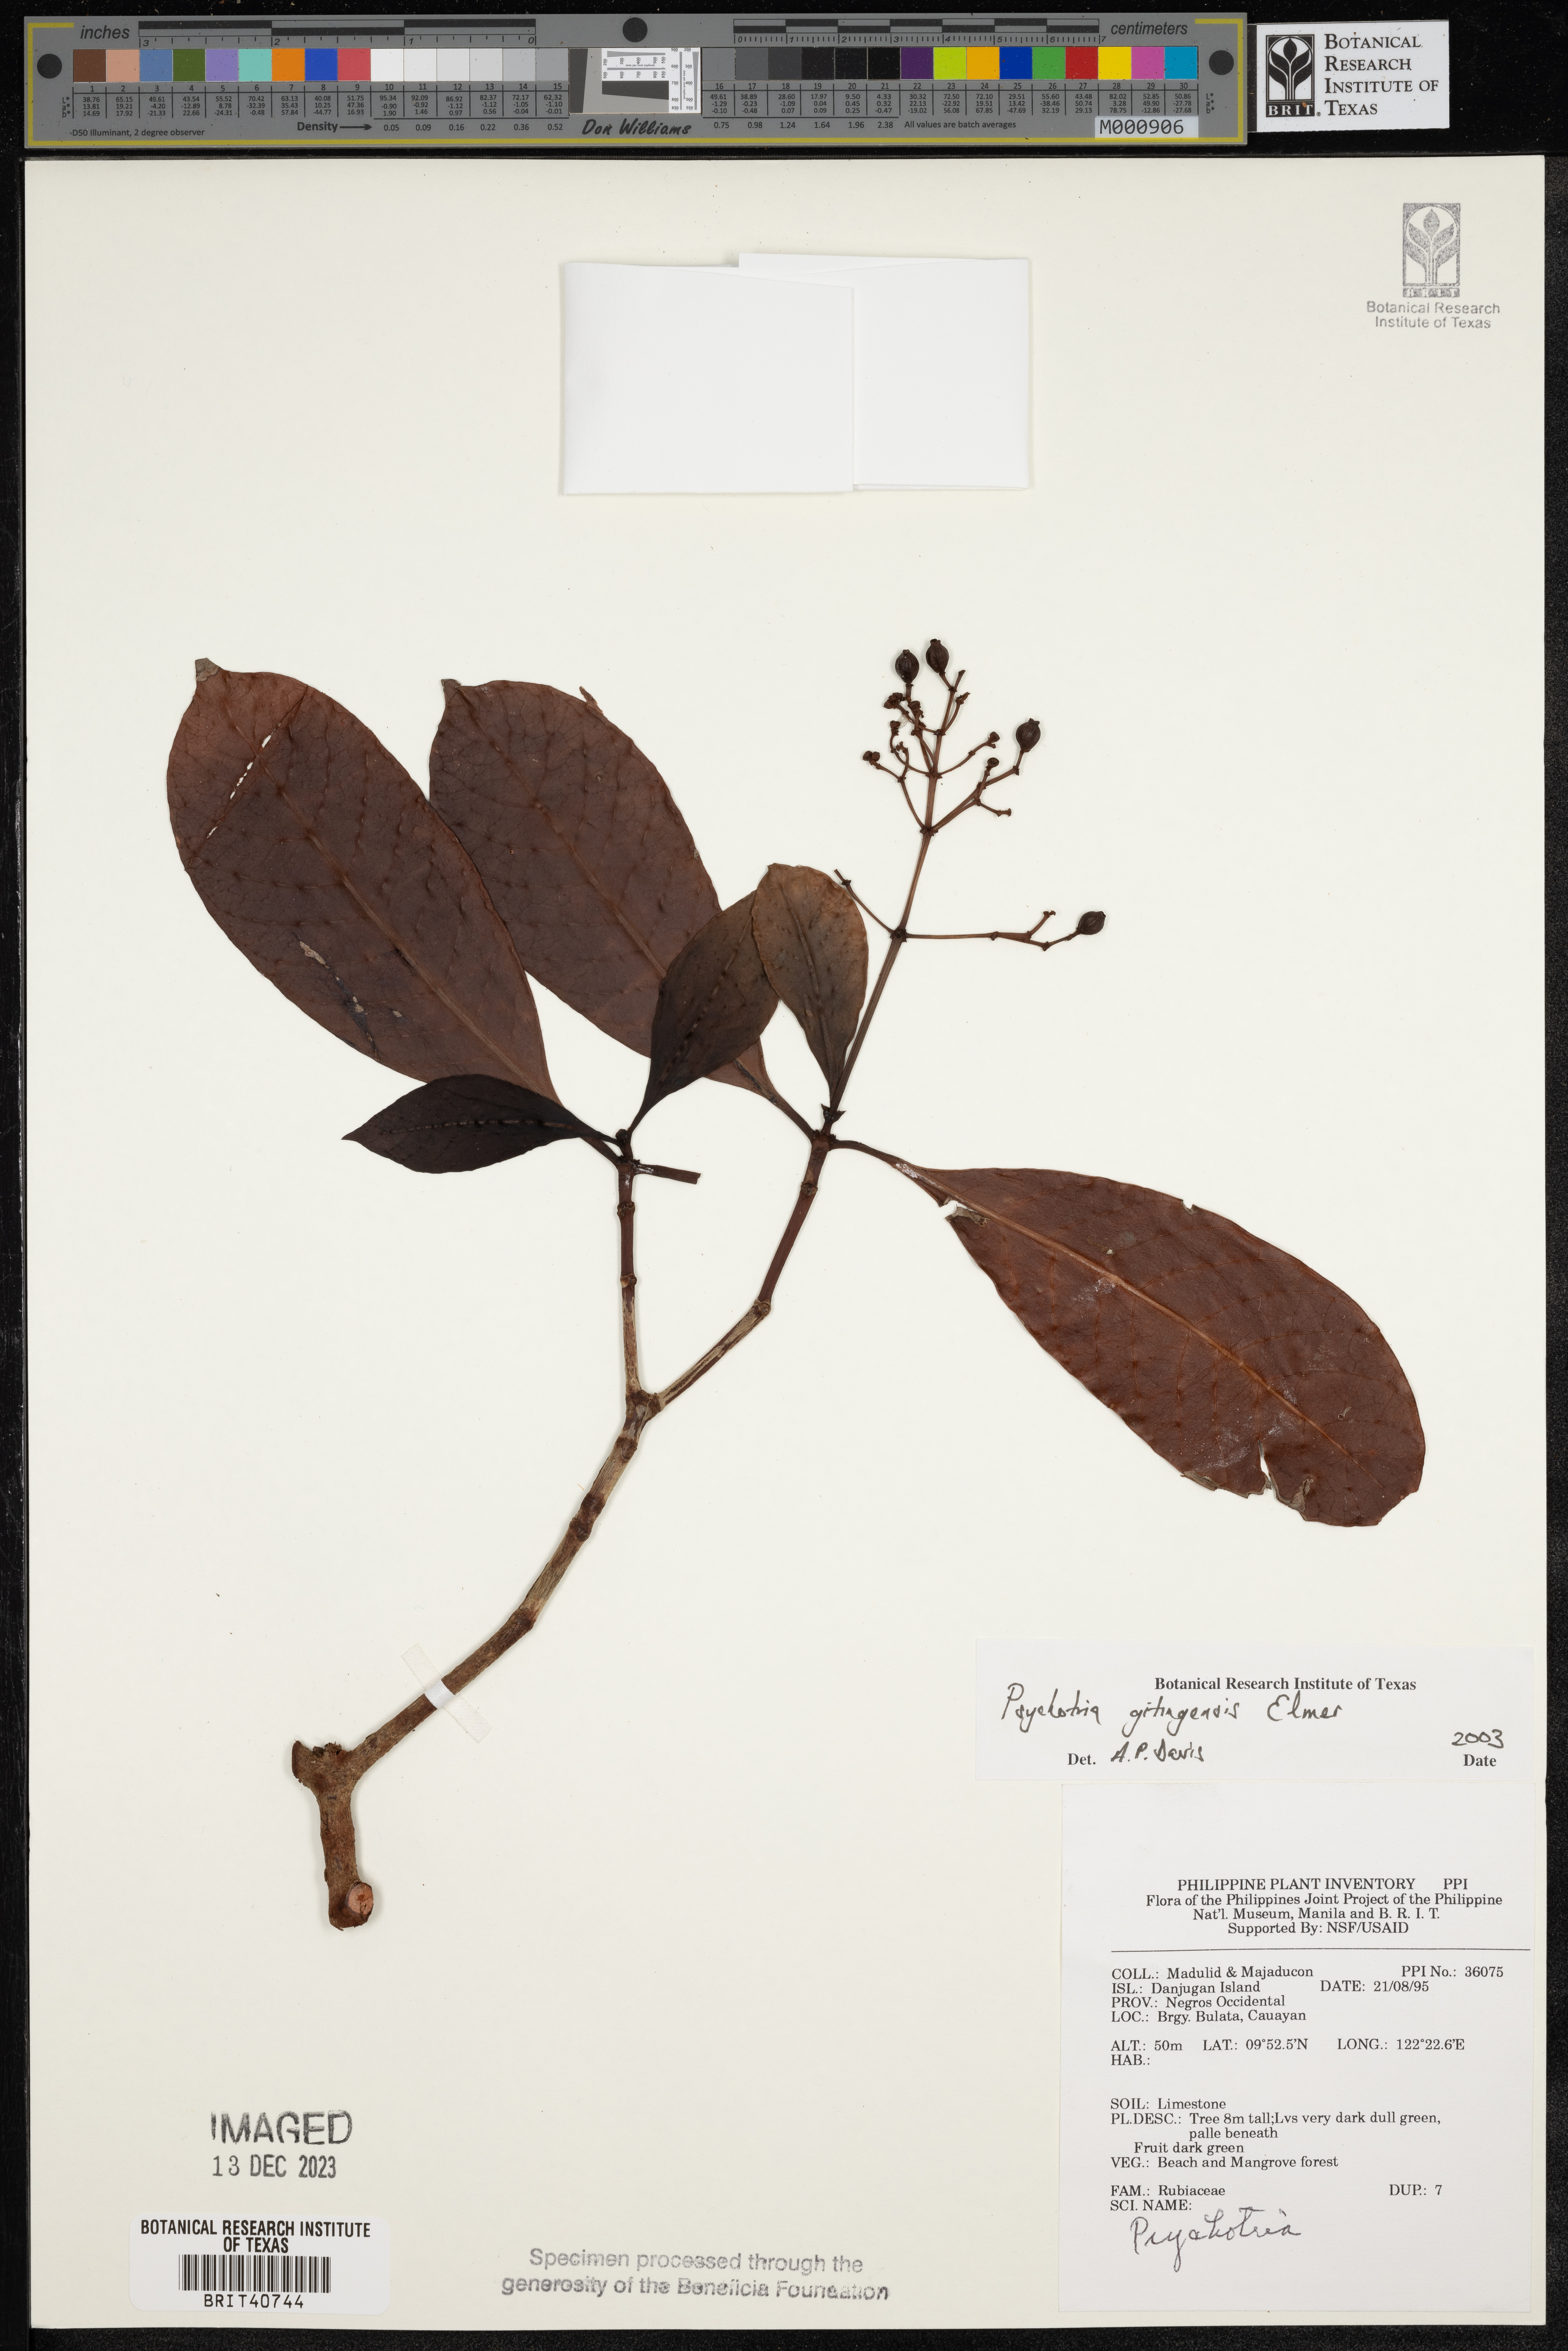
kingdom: Plantae
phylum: Tracheophyta
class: Magnoliopsida
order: Gentianales
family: Rubiaceae
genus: Psychotria
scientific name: Psychotria gitingensis
